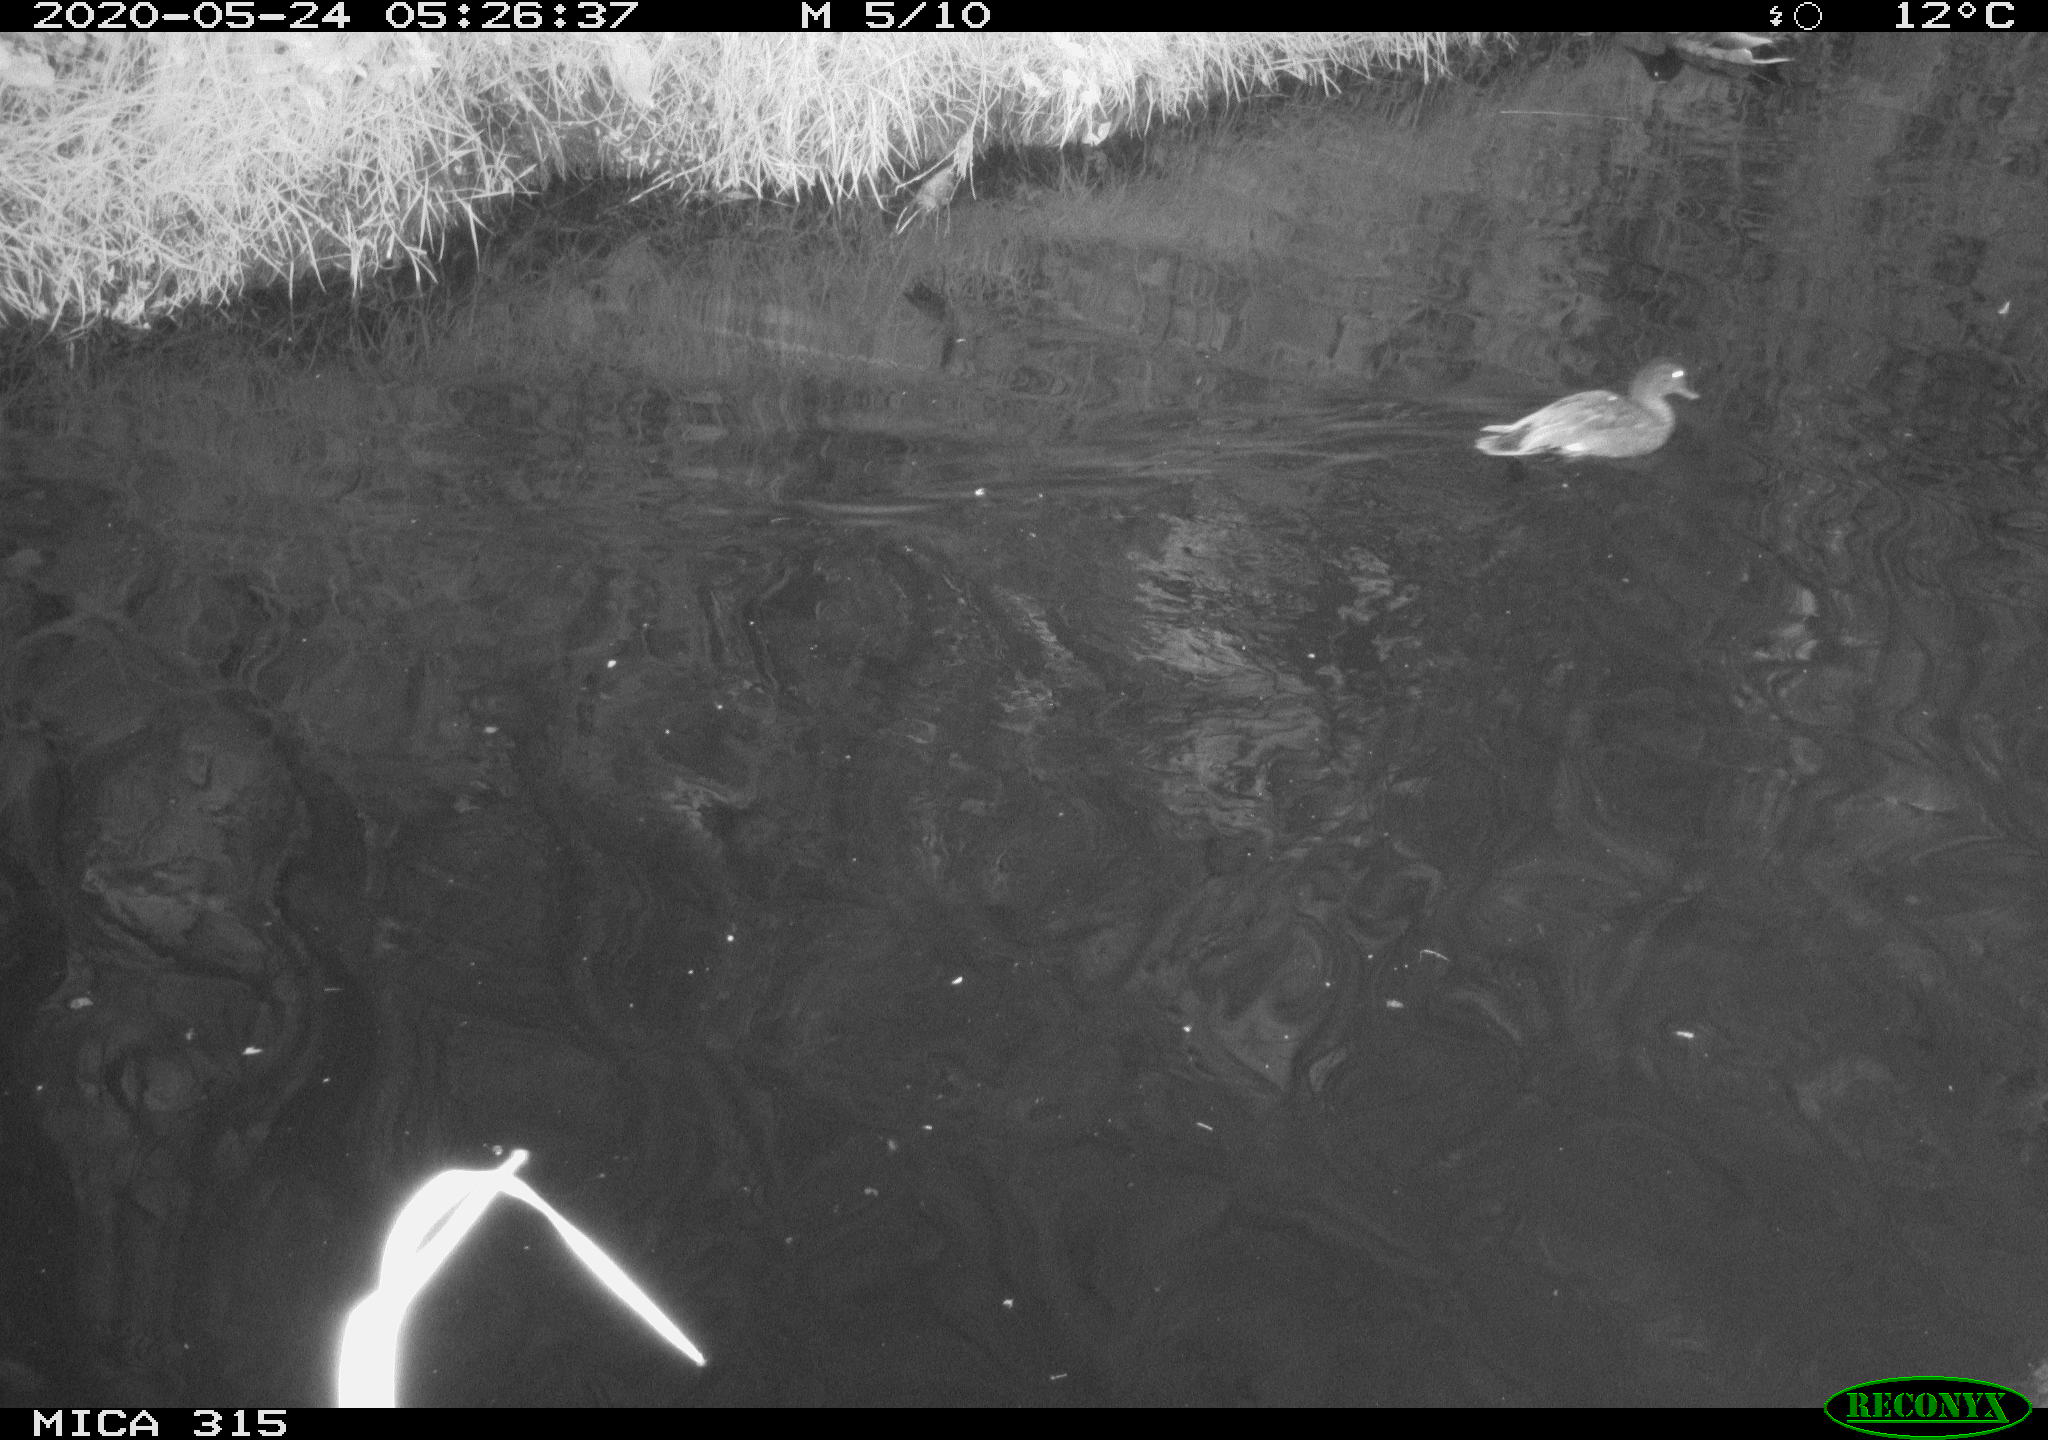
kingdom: Animalia
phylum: Chordata
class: Aves
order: Anseriformes
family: Anatidae
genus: Anas
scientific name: Anas platyrhynchos
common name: Mallard
